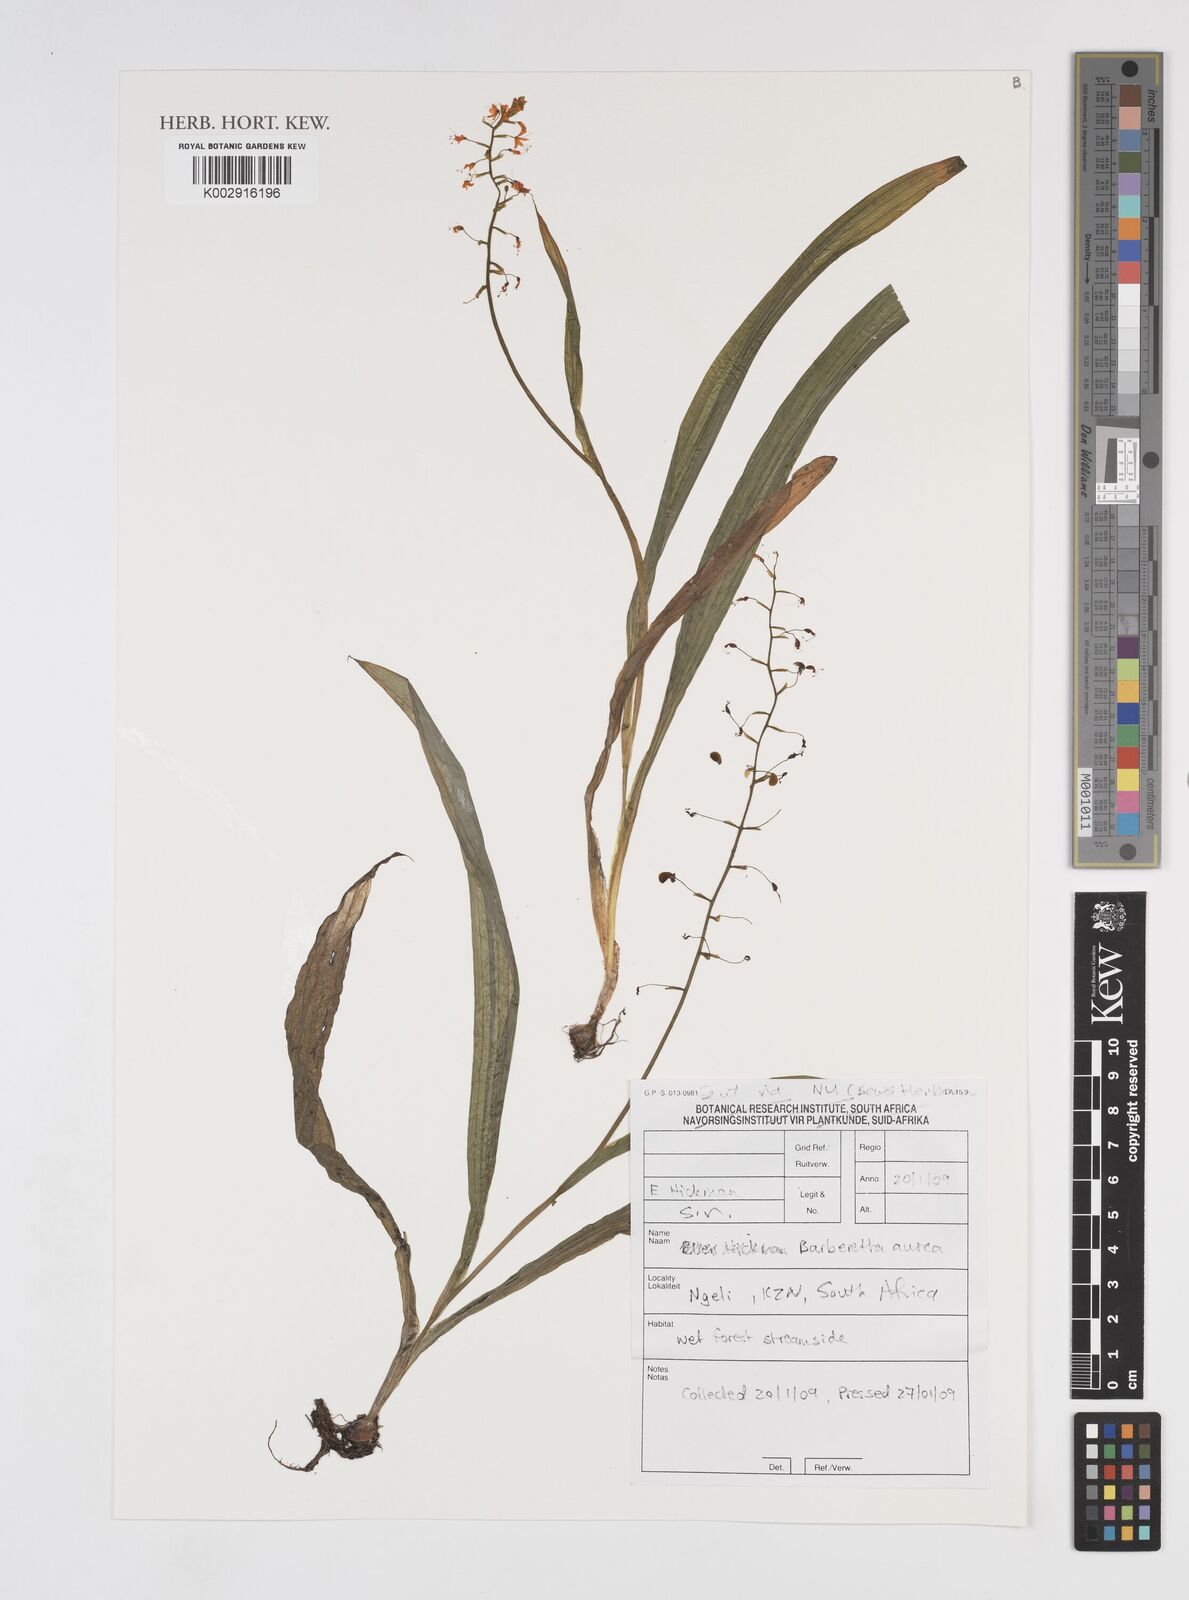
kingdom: Plantae
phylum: Tracheophyta
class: Liliopsida
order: Commelinales
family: Haemodoraceae
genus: Barberetta
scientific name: Barberetta aurea
